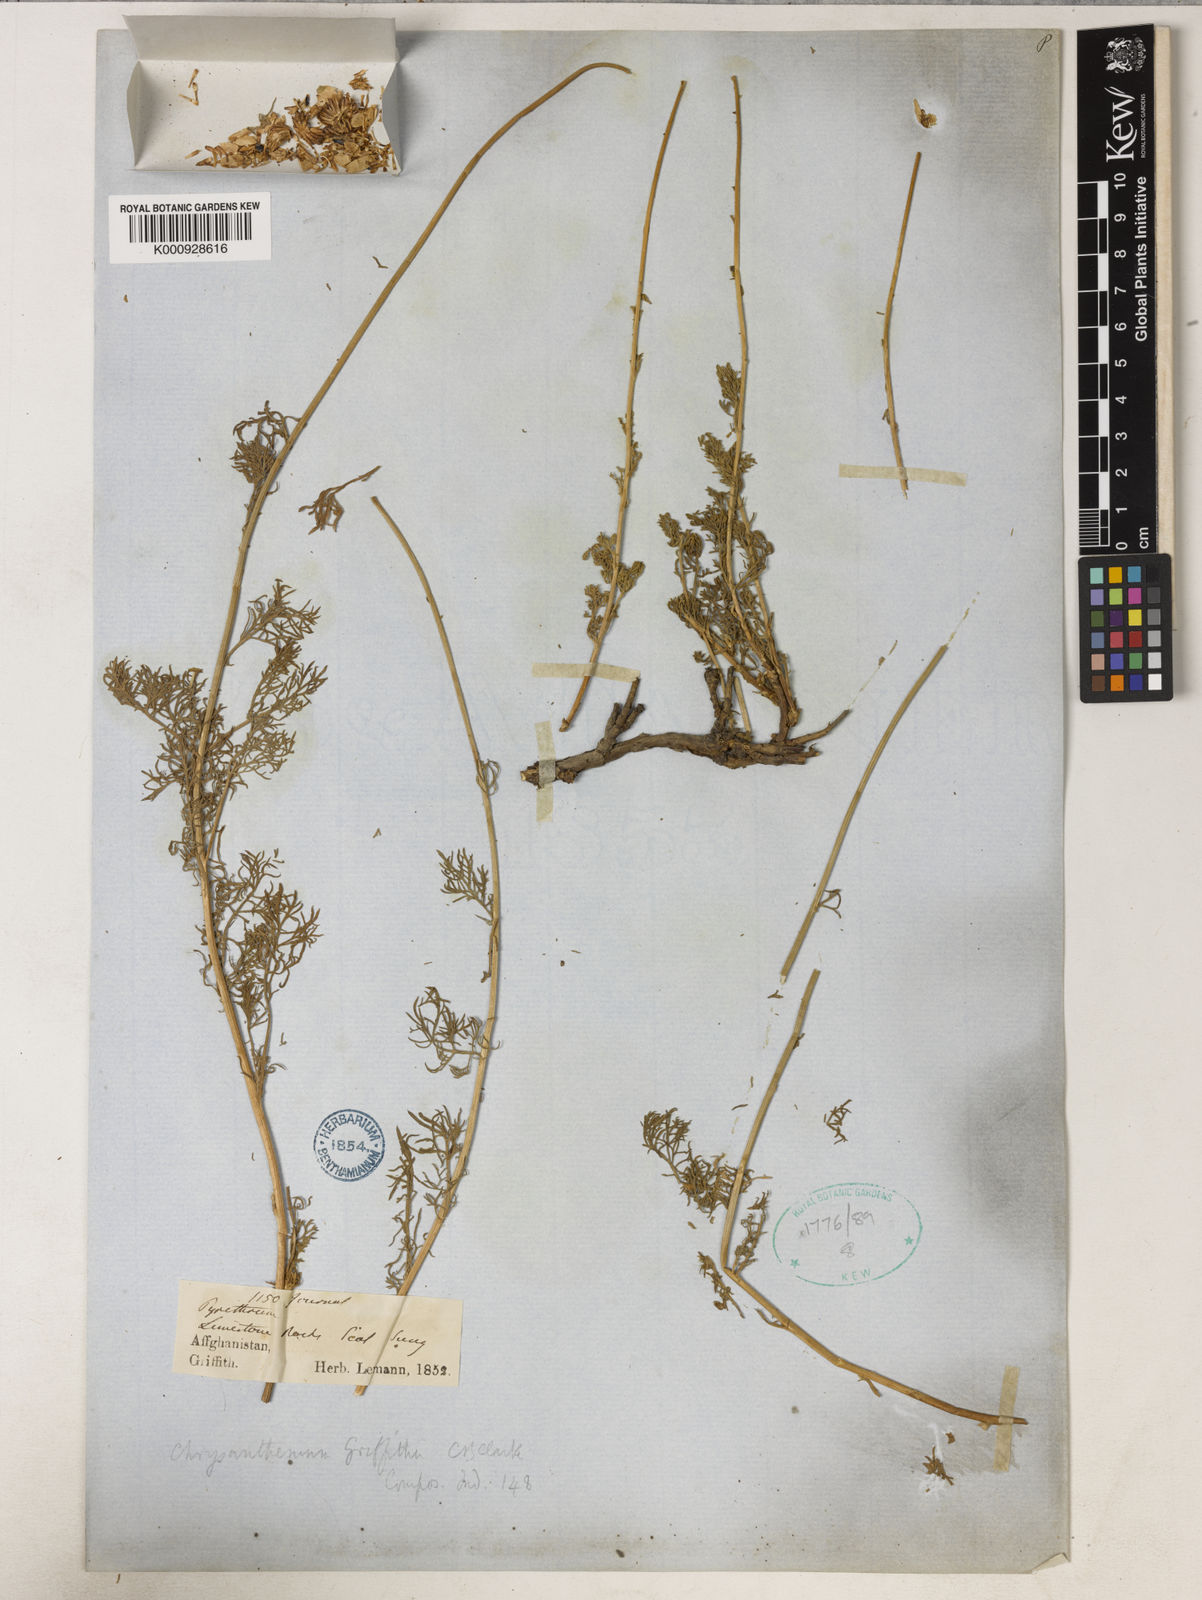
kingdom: Plantae
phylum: Tracheophyta
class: Magnoliopsida
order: Asterales
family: Asteraceae
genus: Tanacetum
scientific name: Tanacetum griffithii
